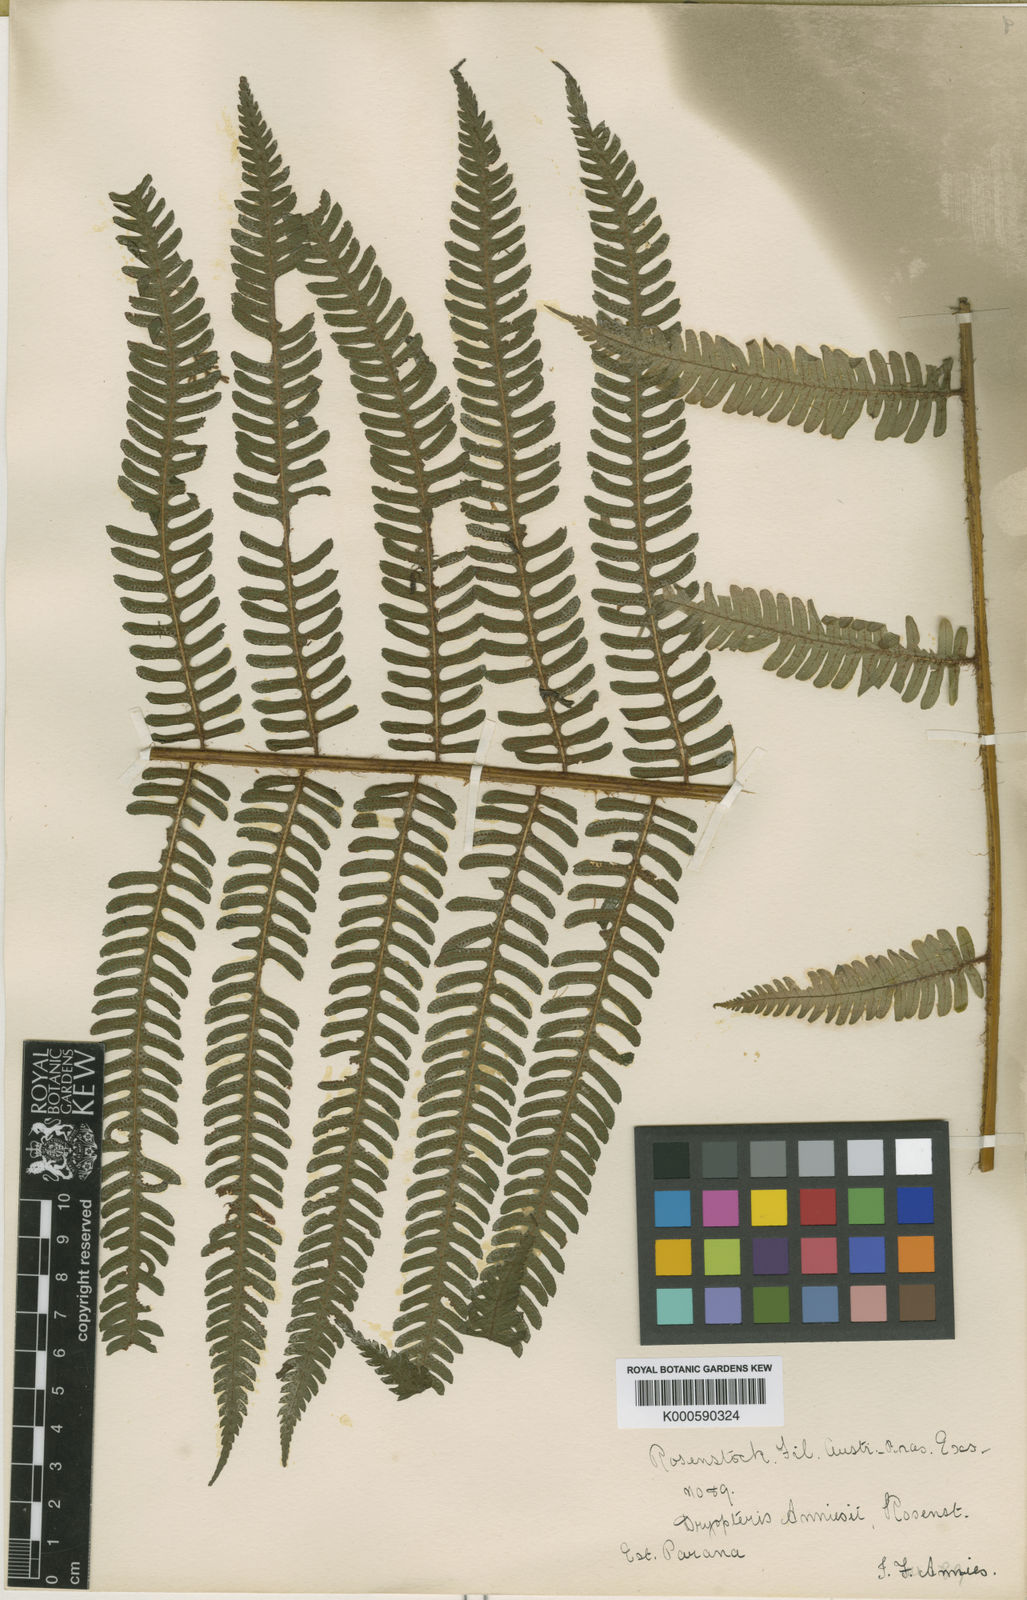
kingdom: Plantae
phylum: Tracheophyta
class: Polypodiopsida
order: Polypodiales
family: Dryopteridaceae
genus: Ctenitis
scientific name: Ctenitis anniesii
